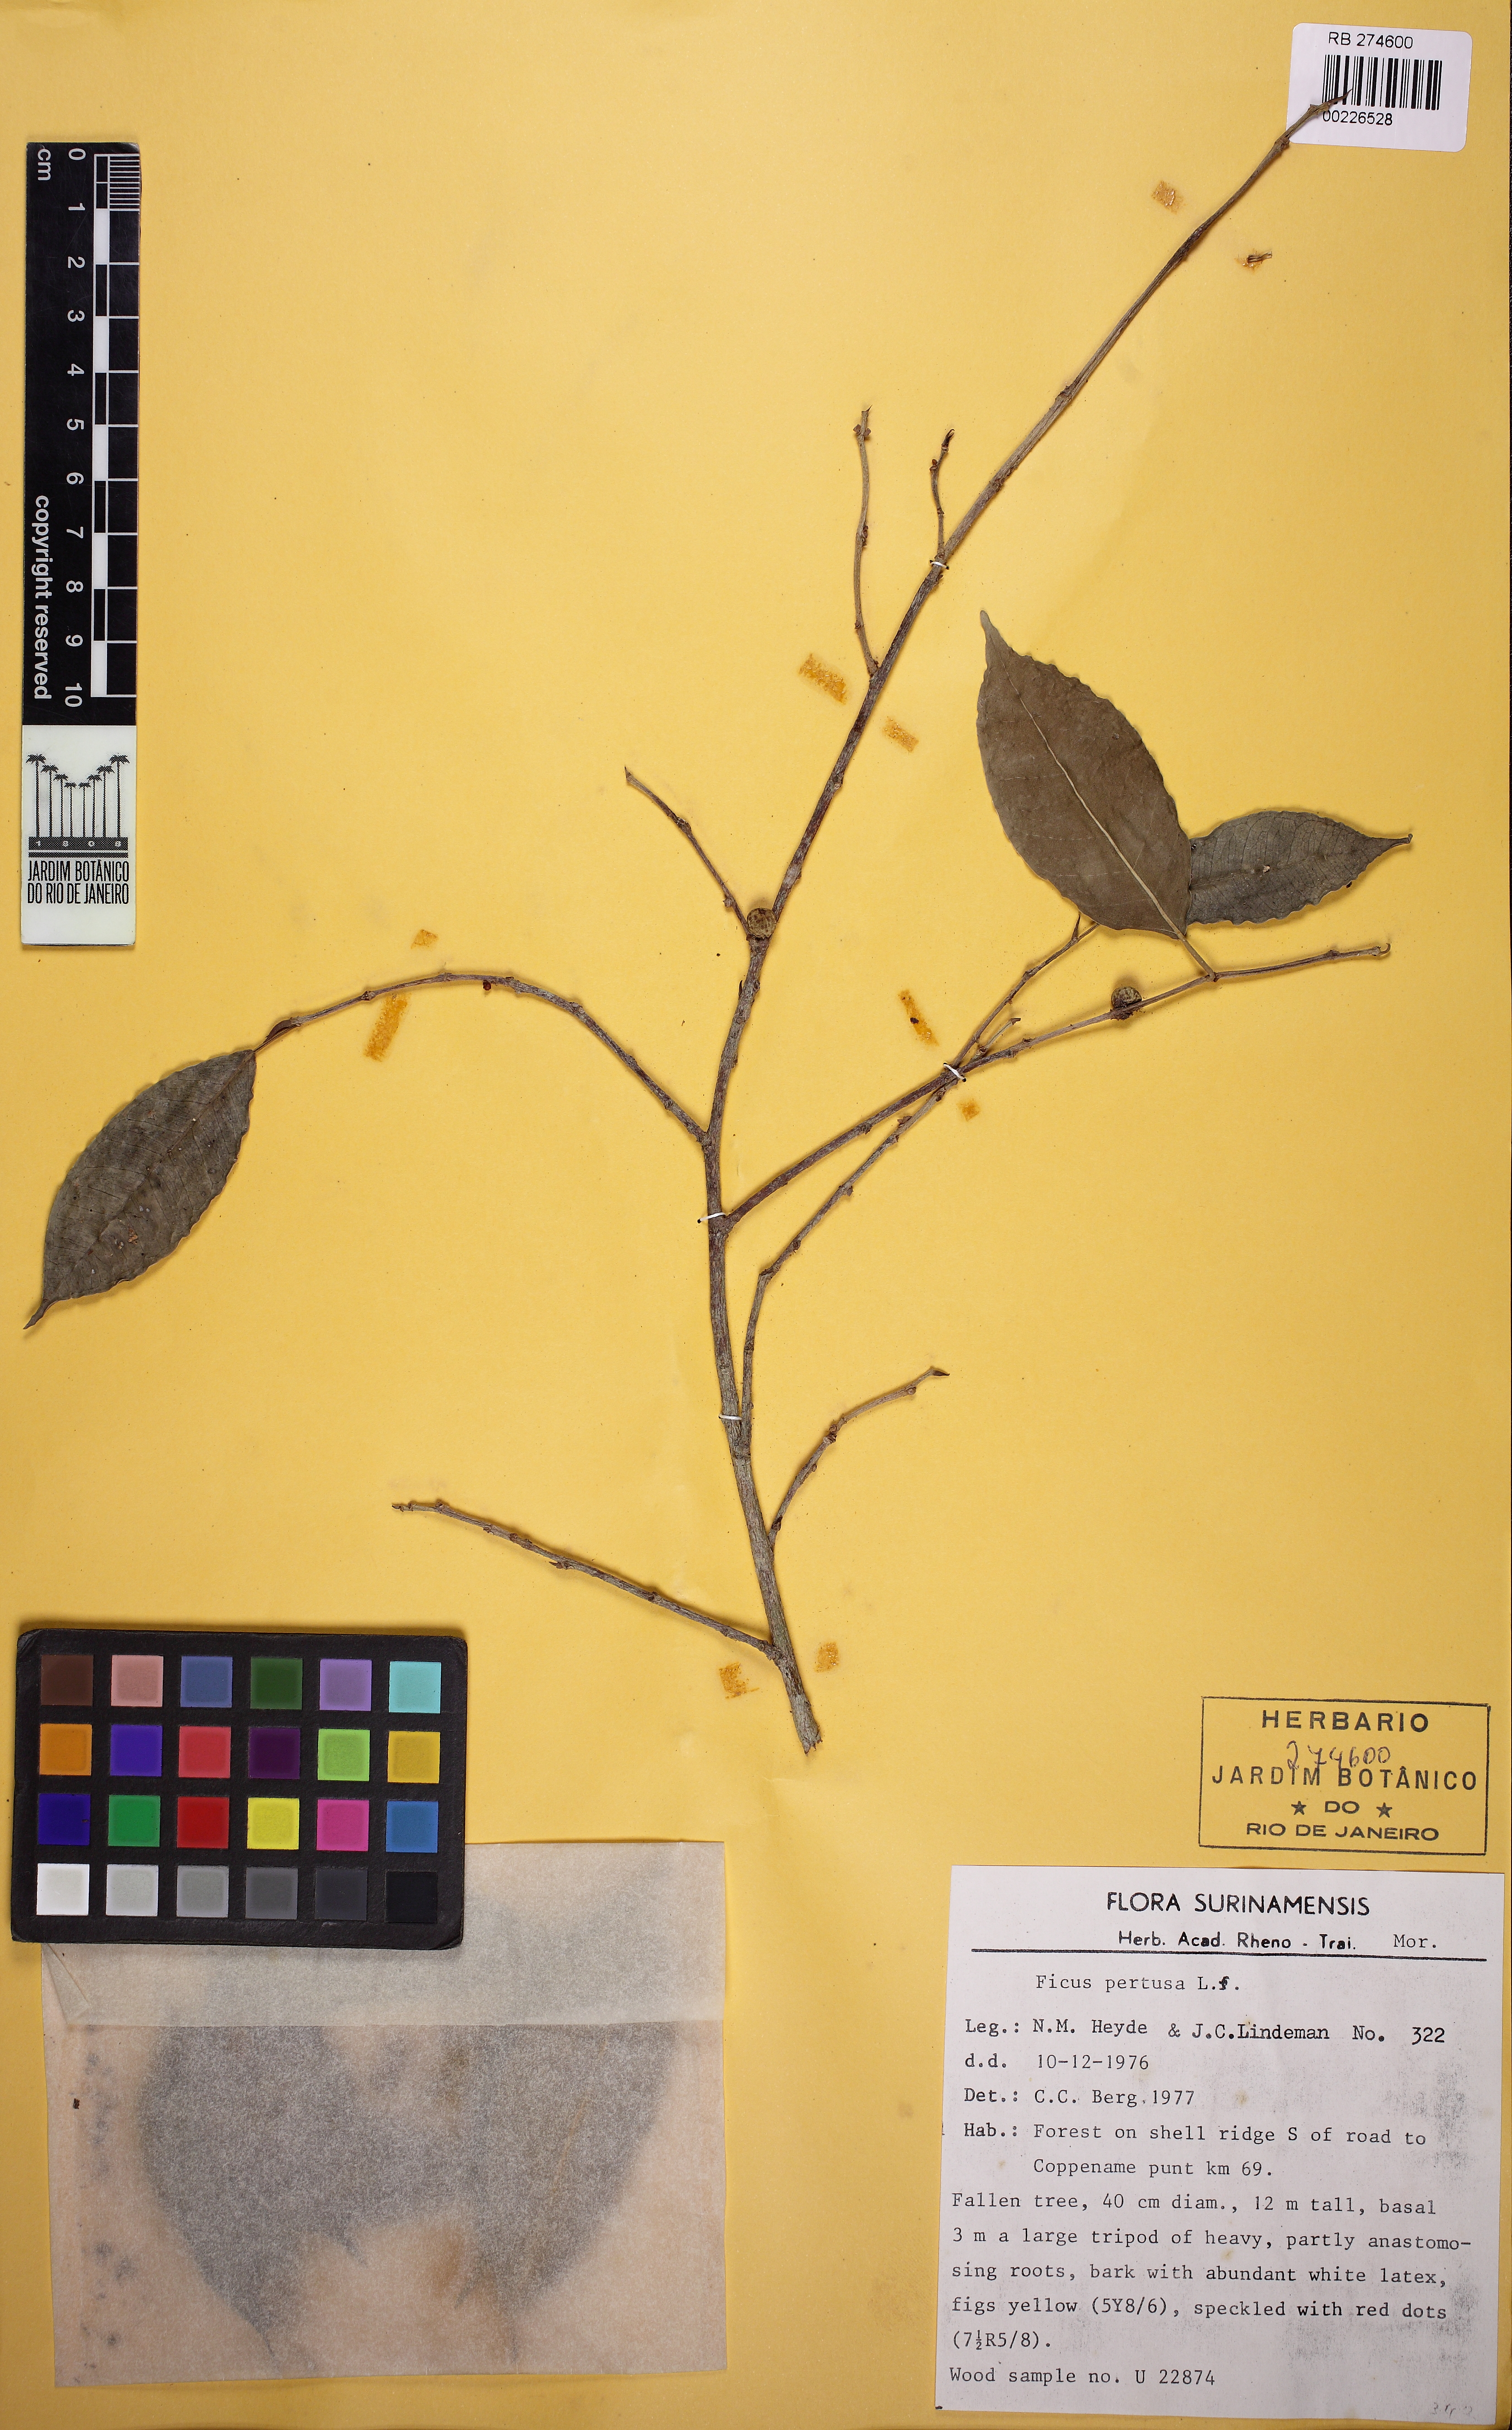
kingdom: Plantae
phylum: Tracheophyta
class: Magnoliopsida
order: Rosales
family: Moraceae
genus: Ficus
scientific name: Ficus pertusa
